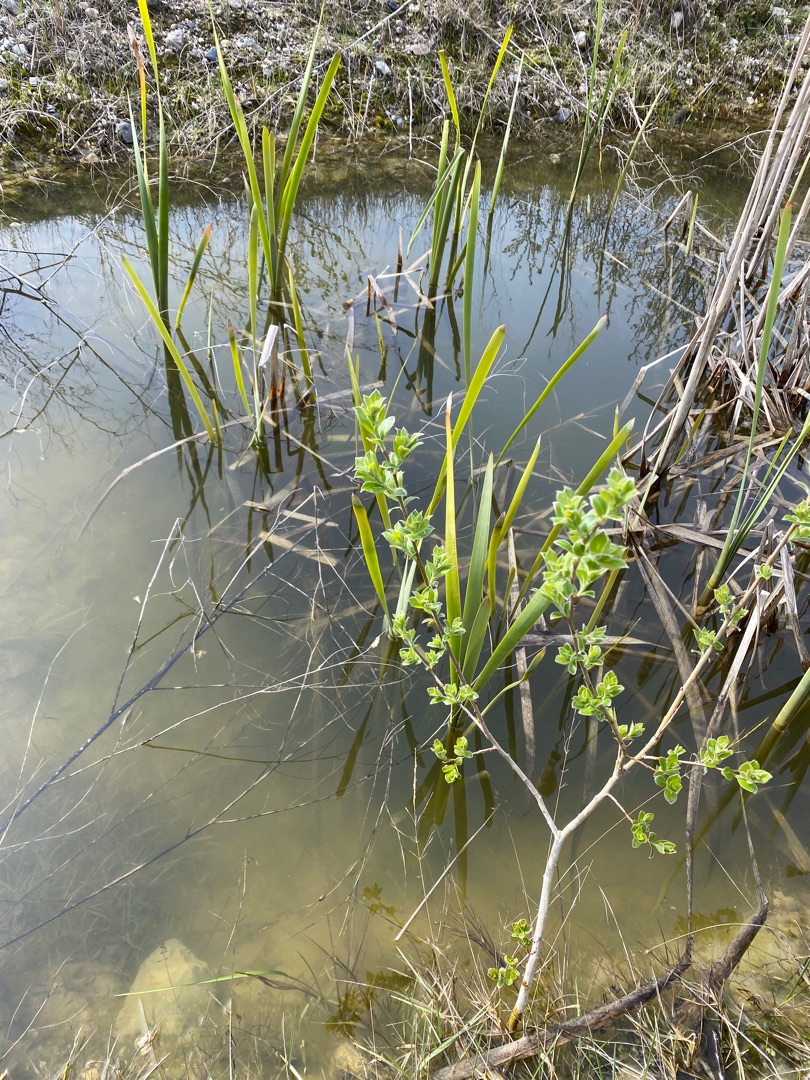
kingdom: Plantae
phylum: Tracheophyta
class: Liliopsida
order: Poales
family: Typhaceae
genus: Typha
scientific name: Typha latifolia
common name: Bredbladet dunhammer
